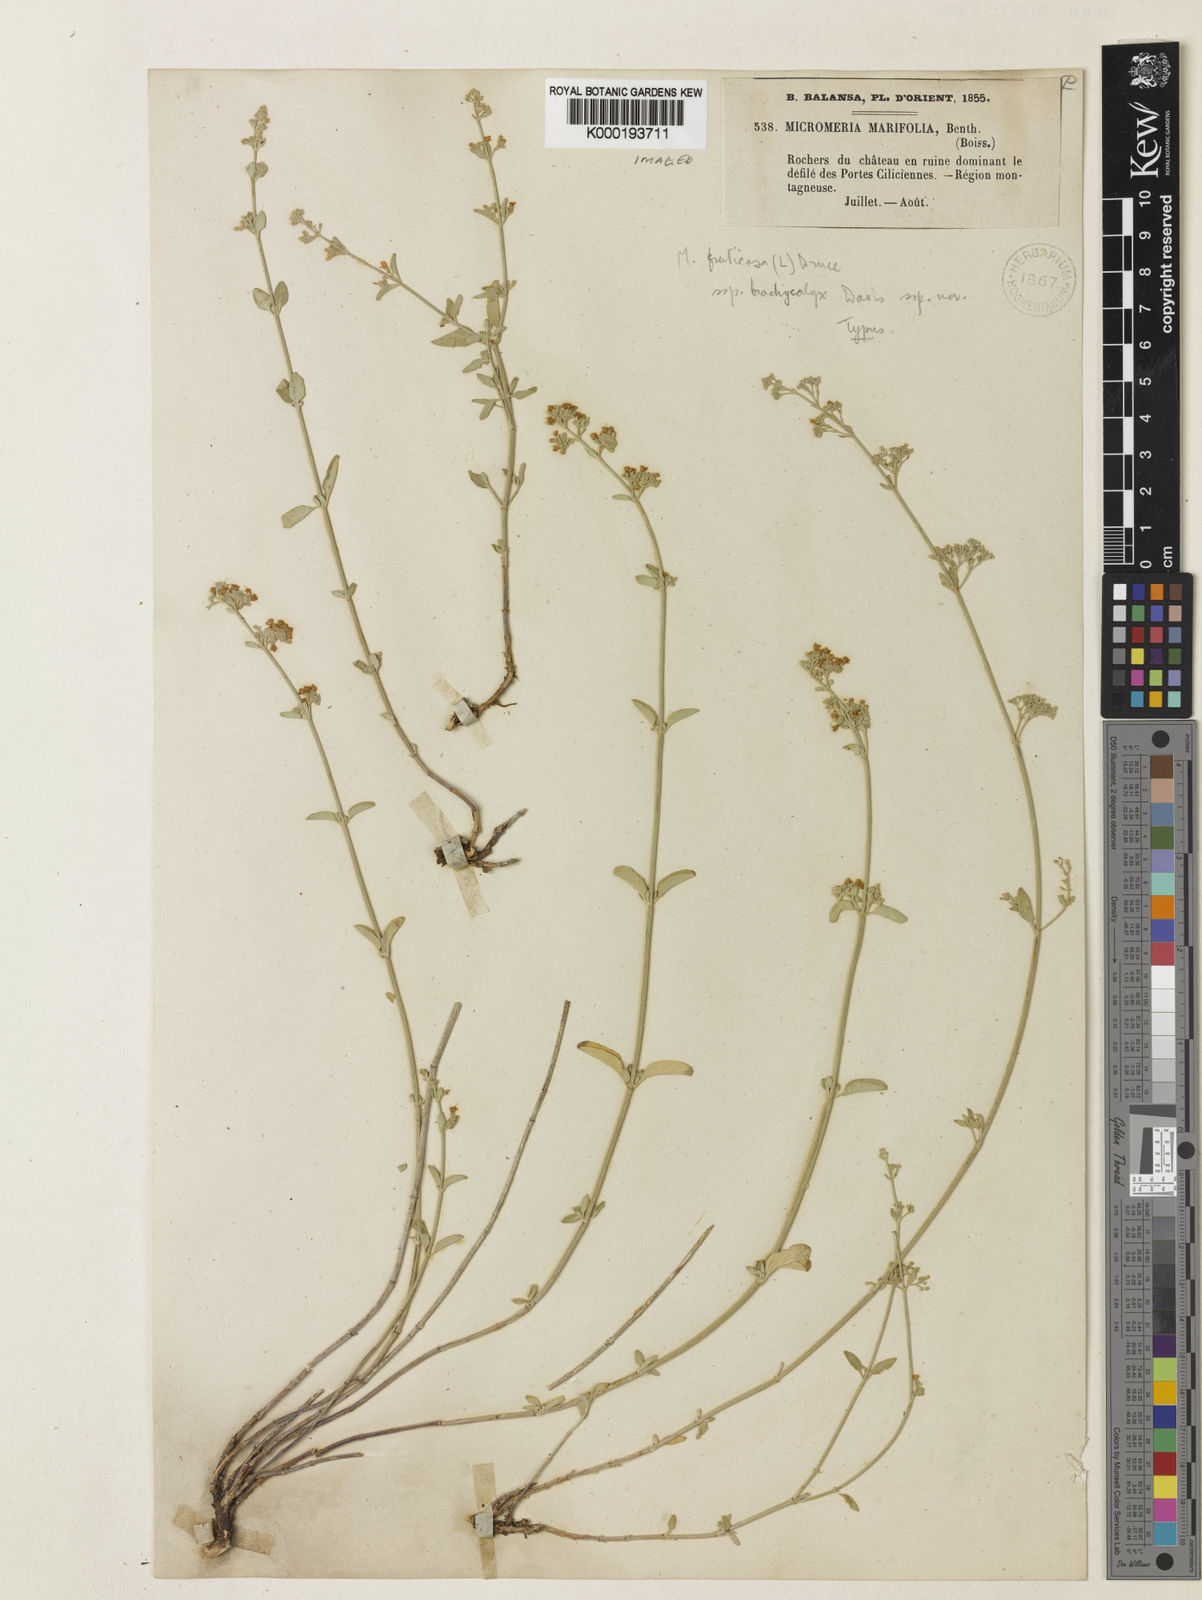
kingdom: Plantae
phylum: Tracheophyta
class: Magnoliopsida
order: Lamiales
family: Lamiaceae
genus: Clinopodium
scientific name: Clinopodium serpyllifolium
